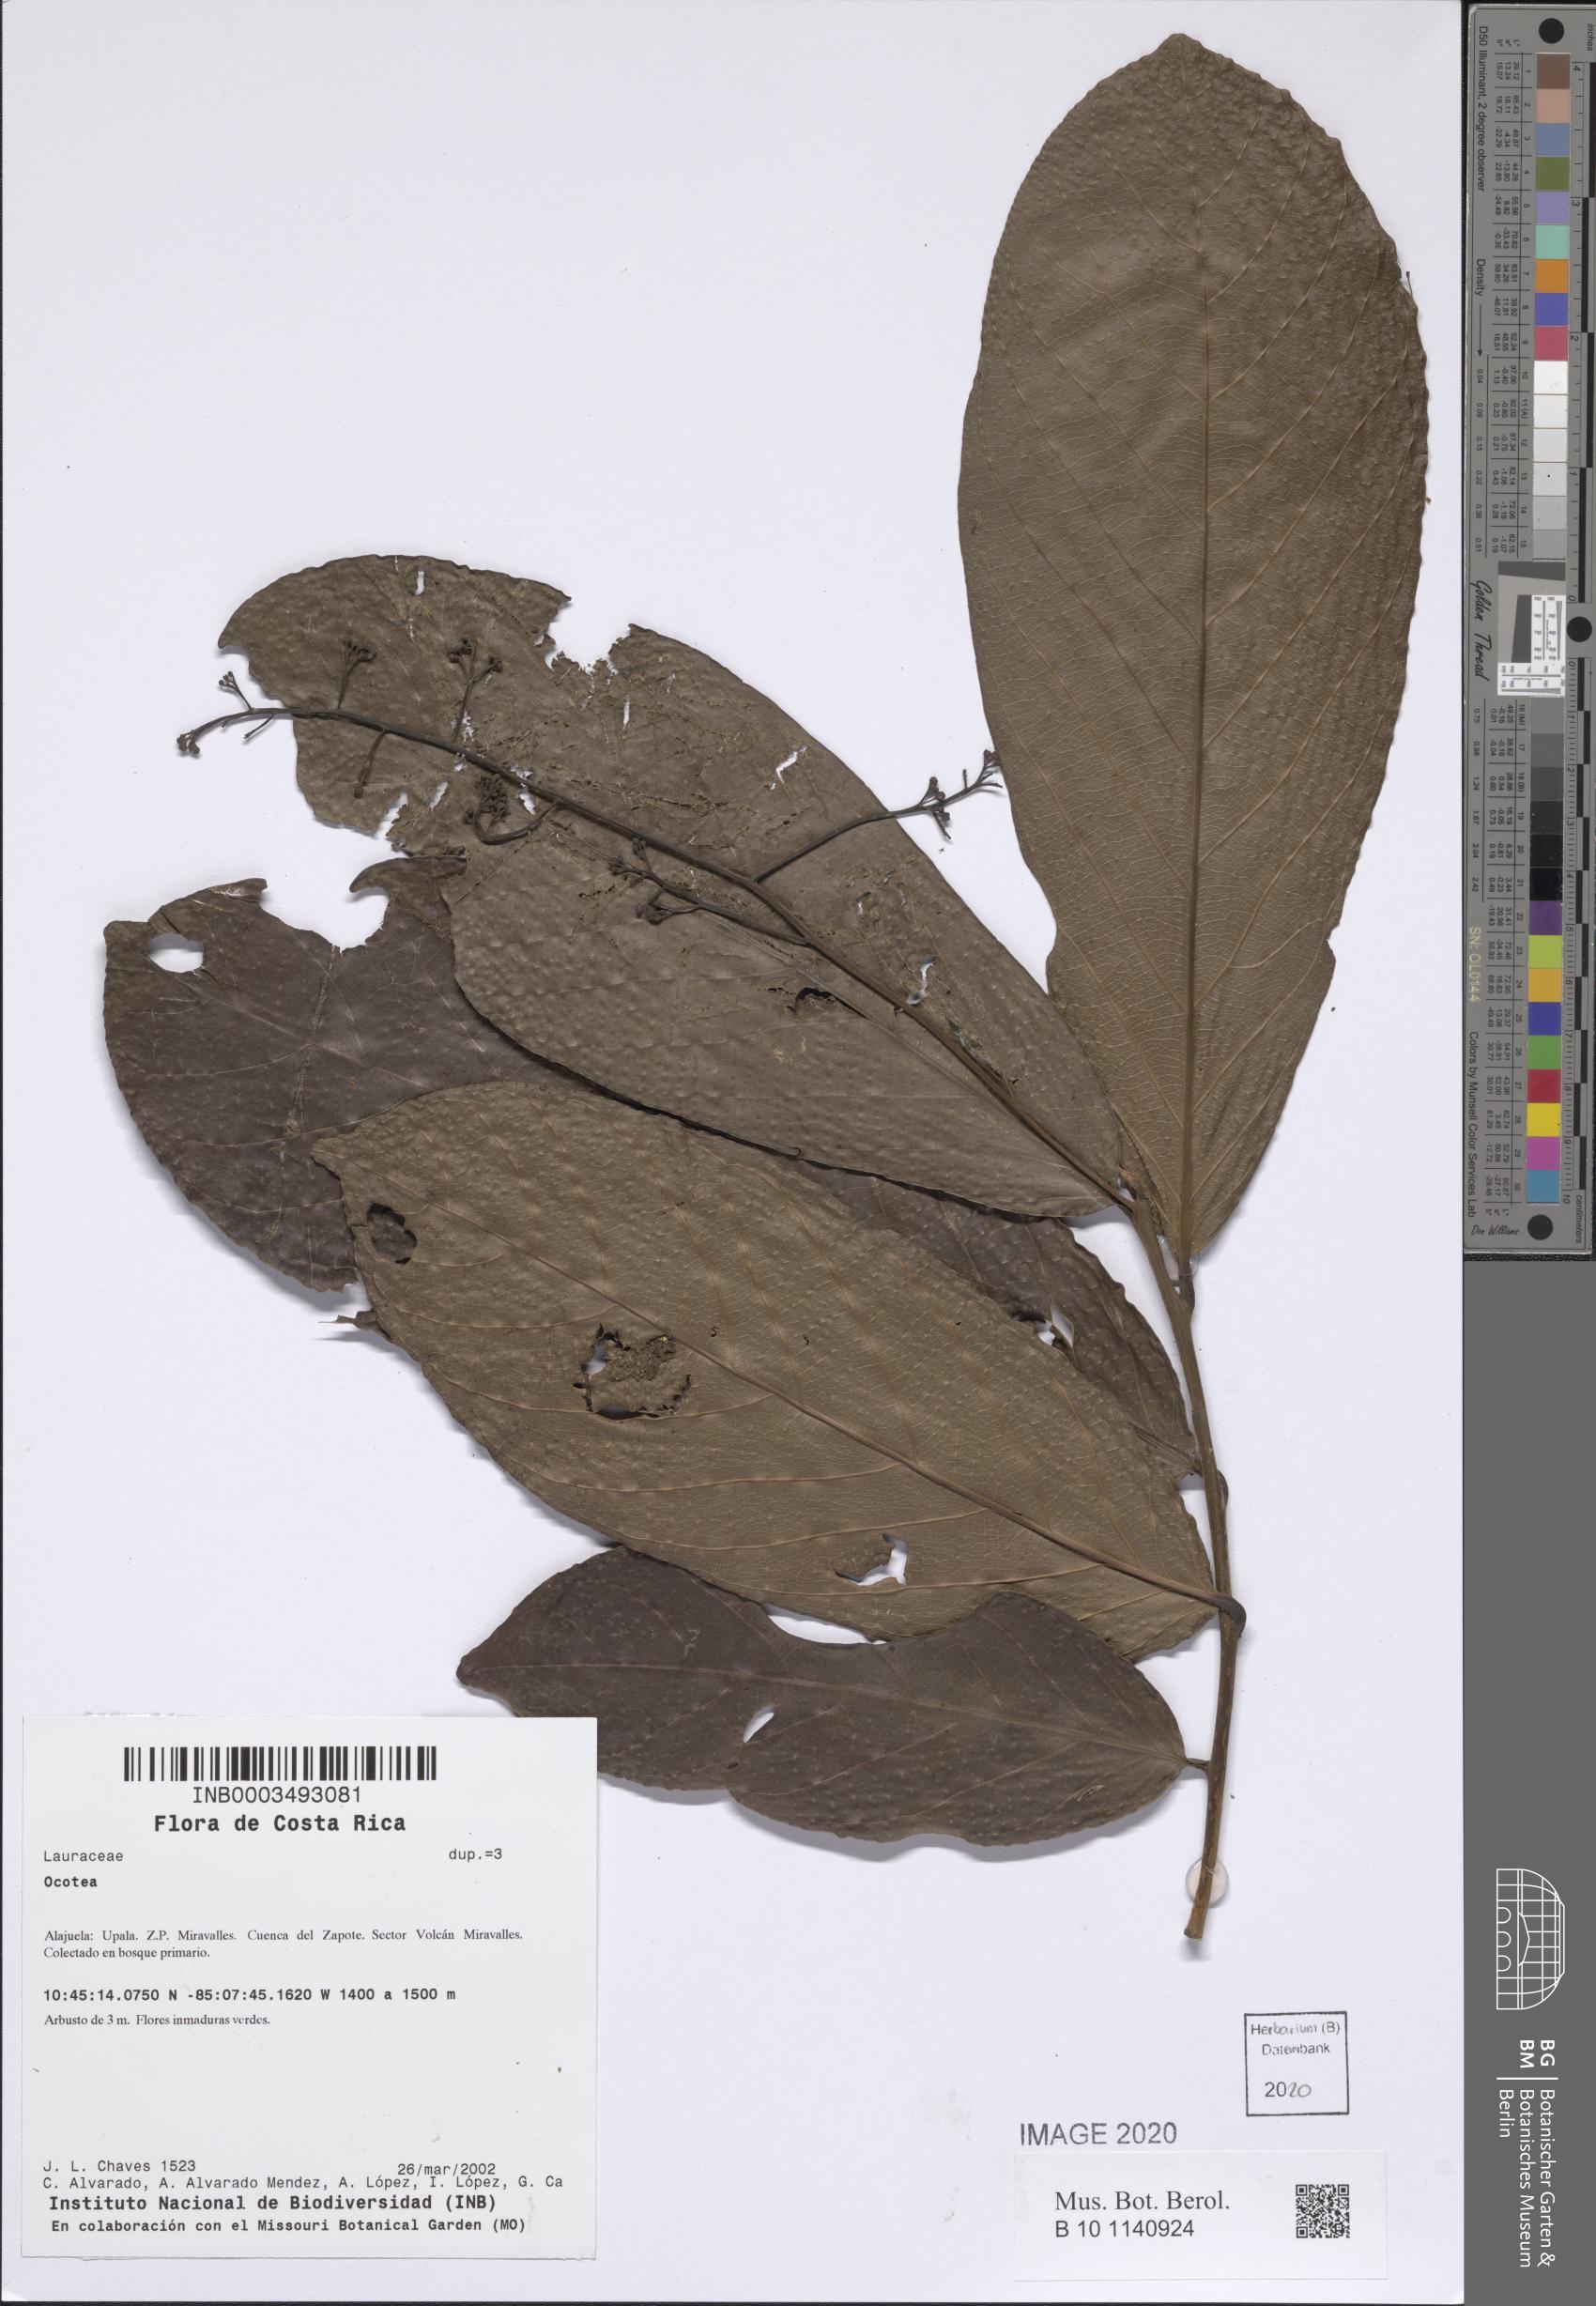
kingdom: Plantae
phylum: Tracheophyta
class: Magnoliopsida
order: Laurales
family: Lauraceae
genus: Ocotea
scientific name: Ocotea
